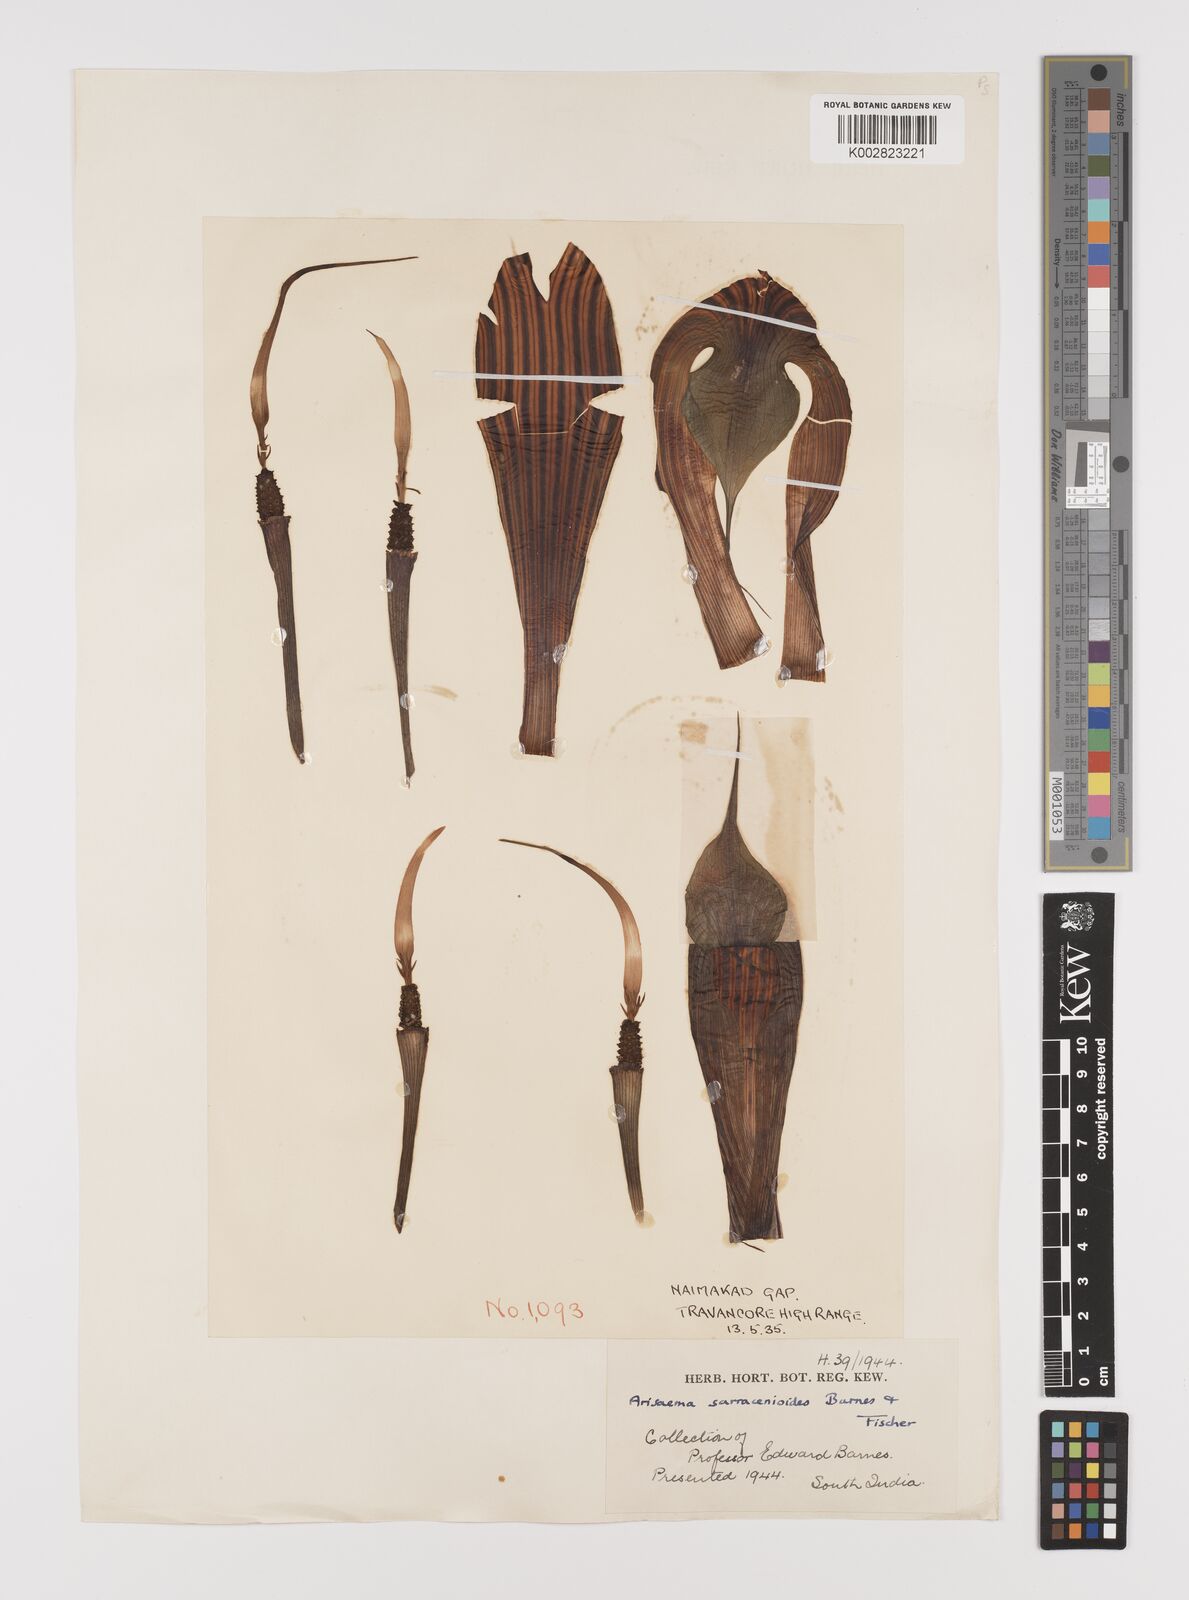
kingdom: Plantae
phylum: Tracheophyta
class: Liliopsida
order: Alismatales
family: Araceae
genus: Arisaema
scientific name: Arisaema sarracenioides
